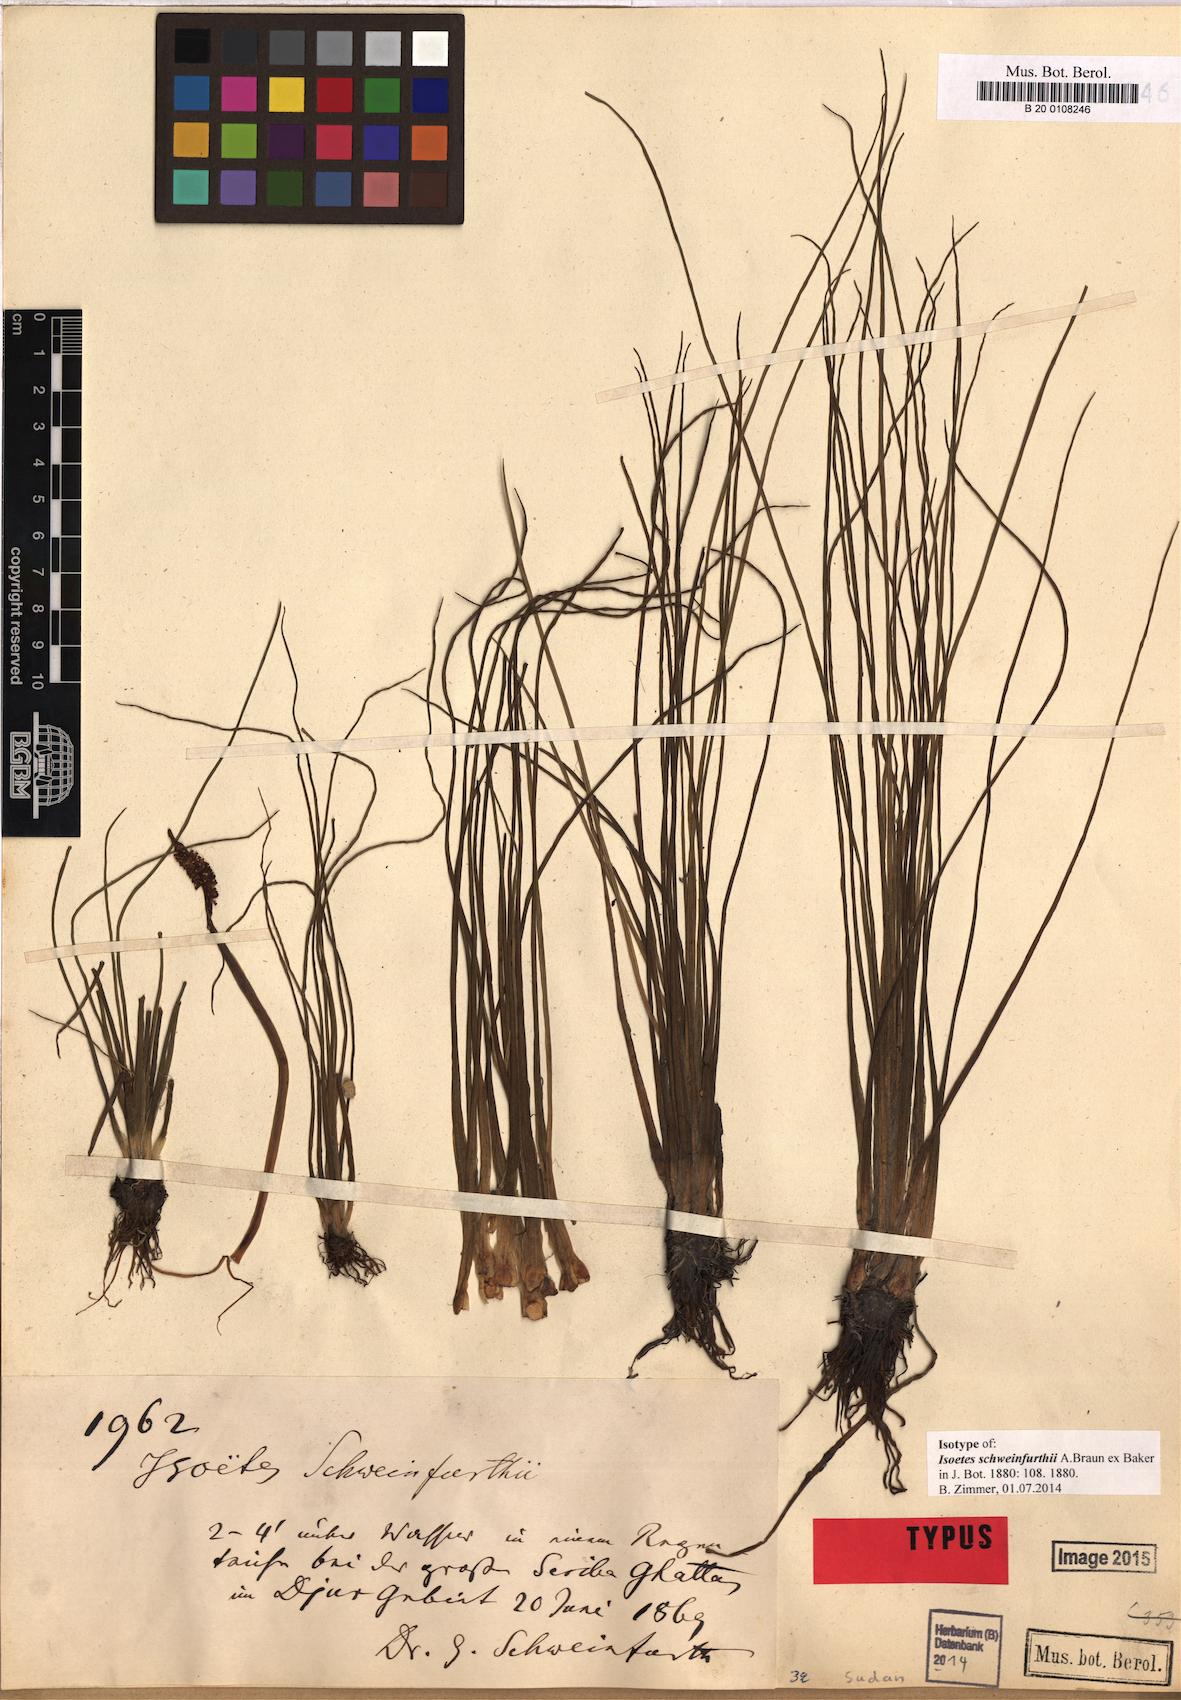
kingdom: Plantae
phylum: Tracheophyta
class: Lycopodiopsida
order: Isoetales
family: Isoetaceae
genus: Isoetes
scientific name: Isoetes schweinfurthii
